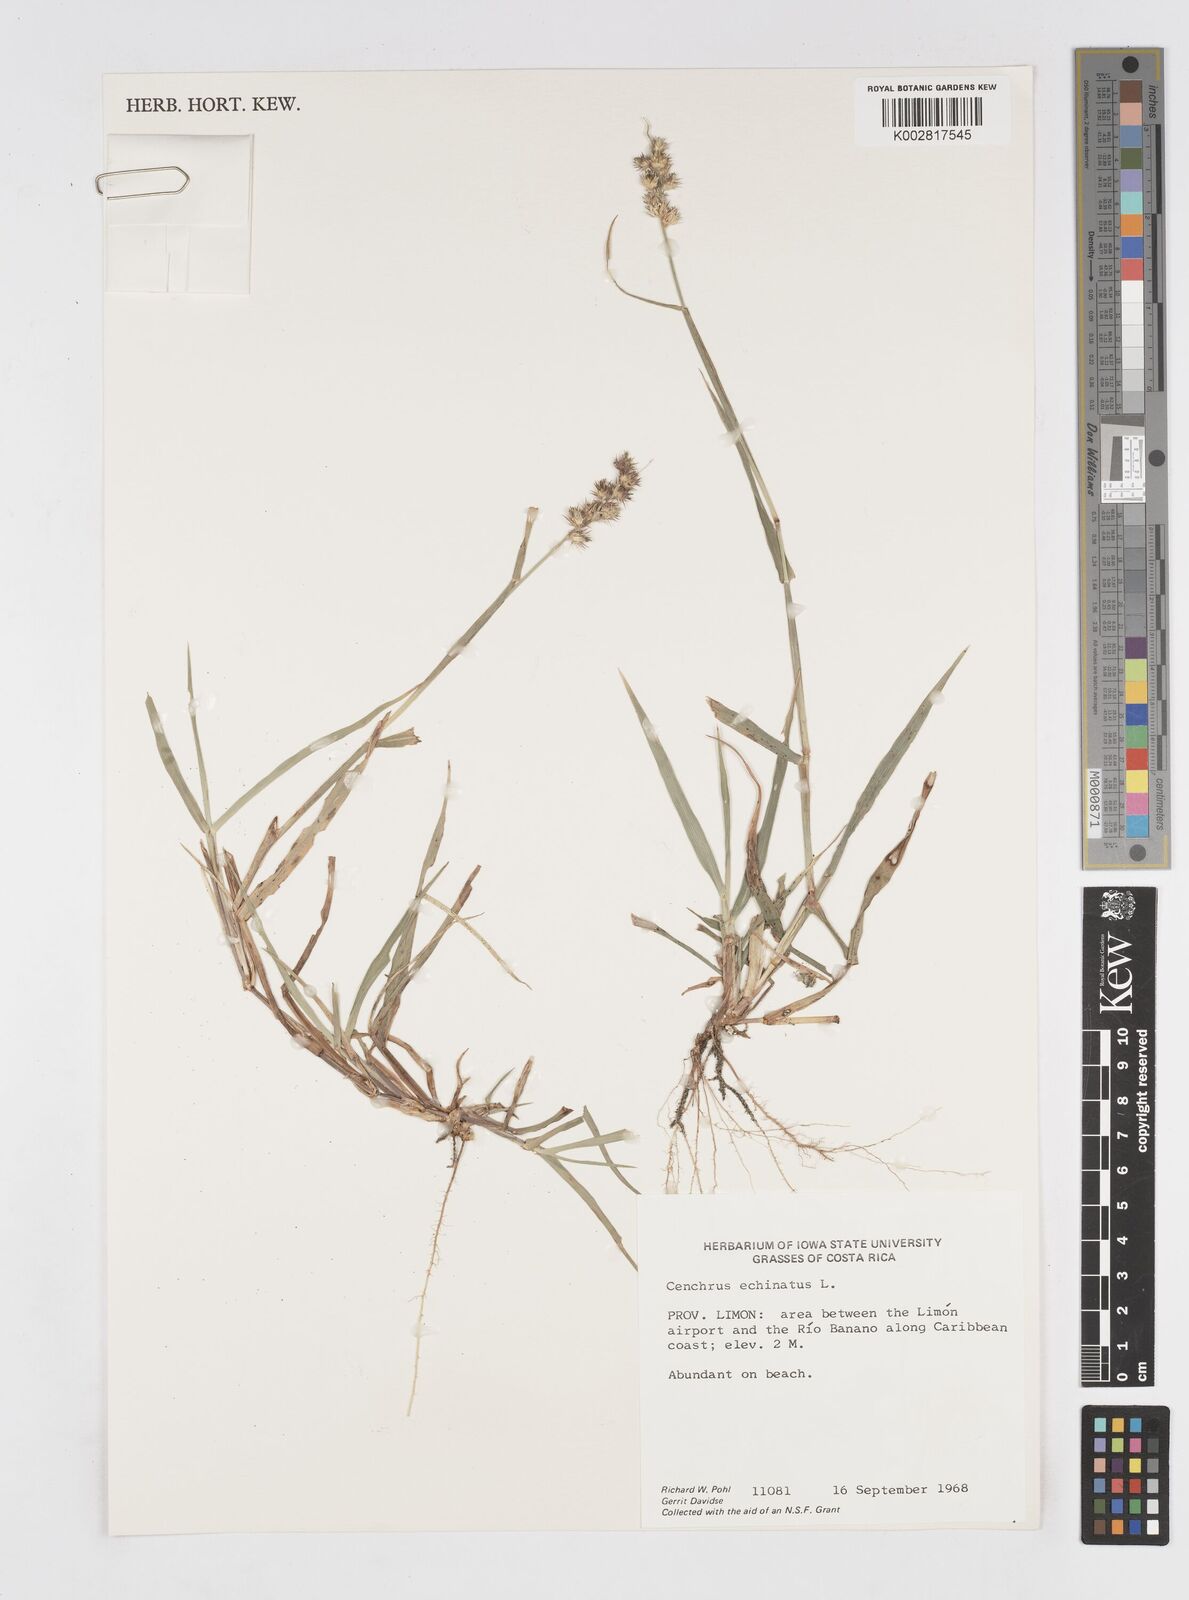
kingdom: Plantae
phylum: Tracheophyta
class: Liliopsida
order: Poales
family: Poaceae
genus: Cenchrus
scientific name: Cenchrus
